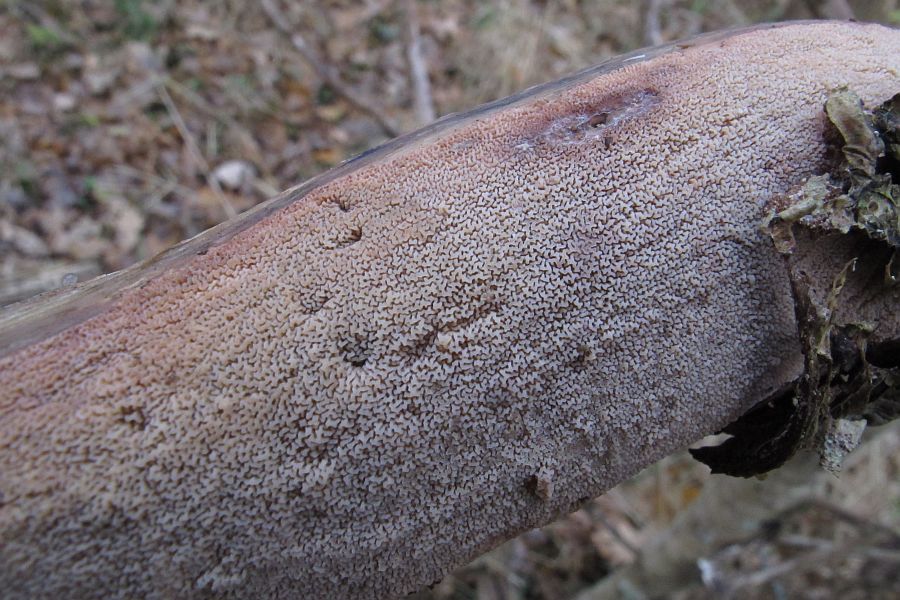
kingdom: Fungi
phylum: Basidiomycota
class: Agaricomycetes
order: Polyporales
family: Meruliaceae
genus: Phlebia
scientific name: Phlebia rufa
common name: ege-åresvamp
